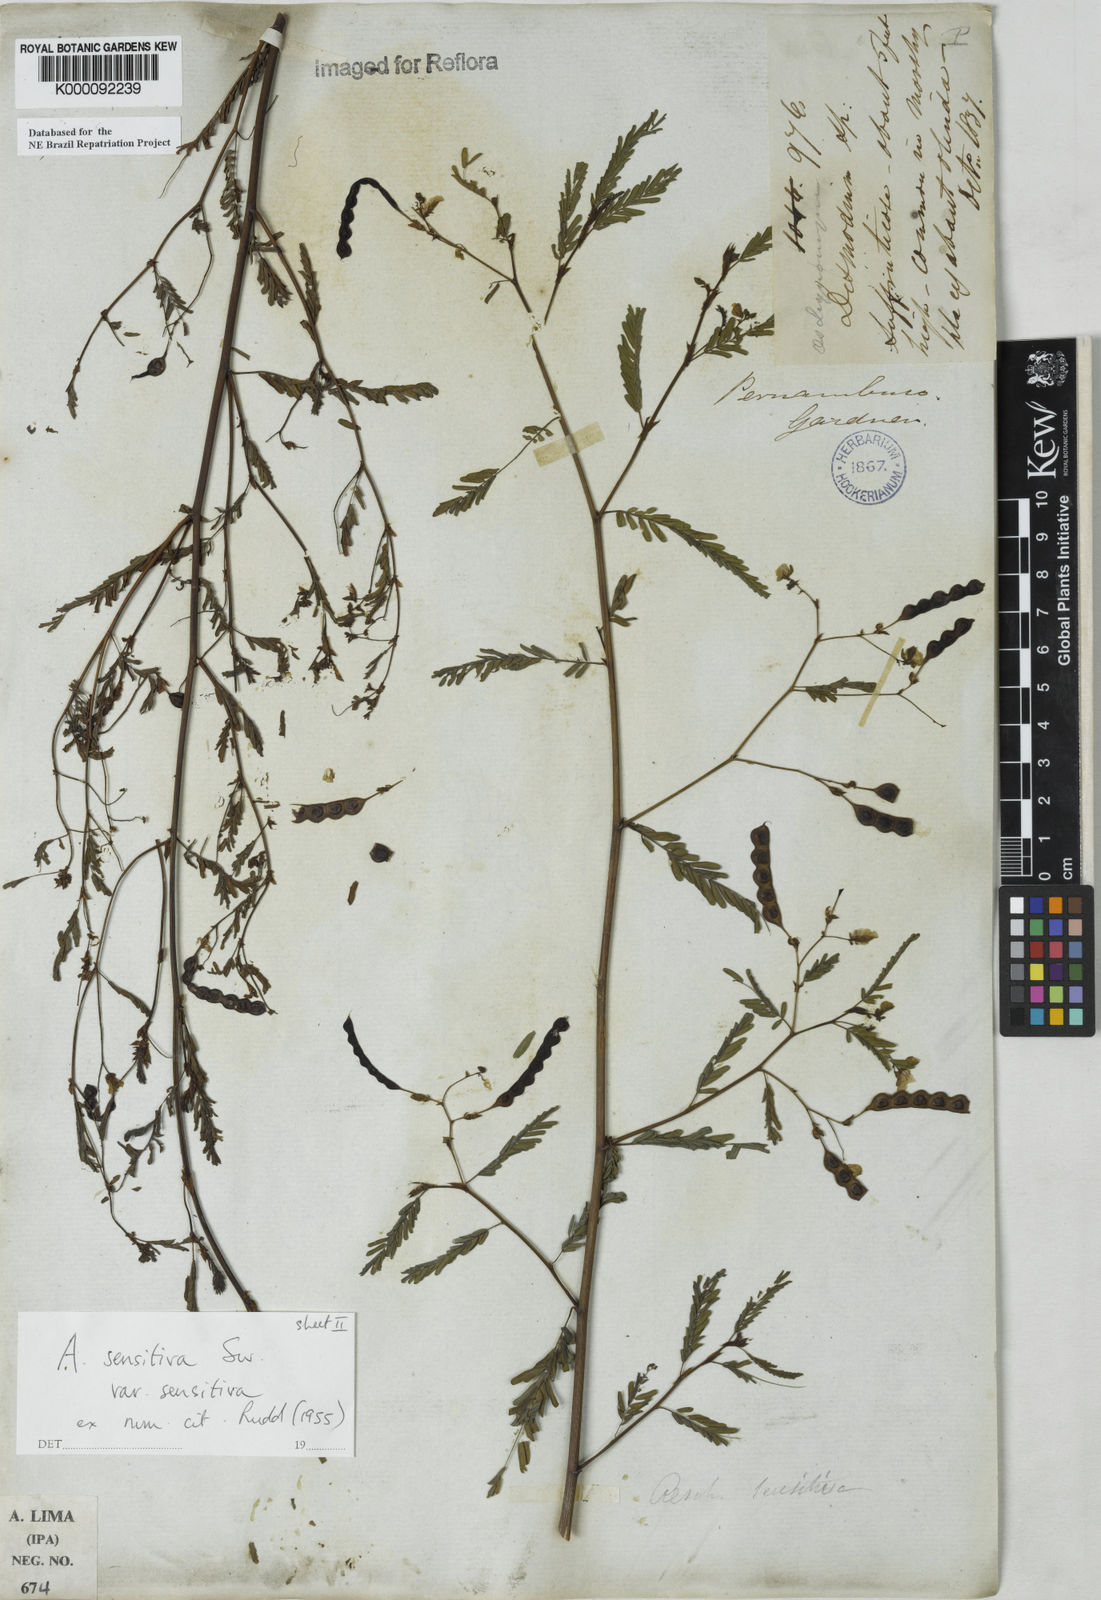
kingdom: Plantae
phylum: Tracheophyta
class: Magnoliopsida
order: Fabales
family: Fabaceae
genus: Aeschynomene
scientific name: Aeschynomene sensitiva
